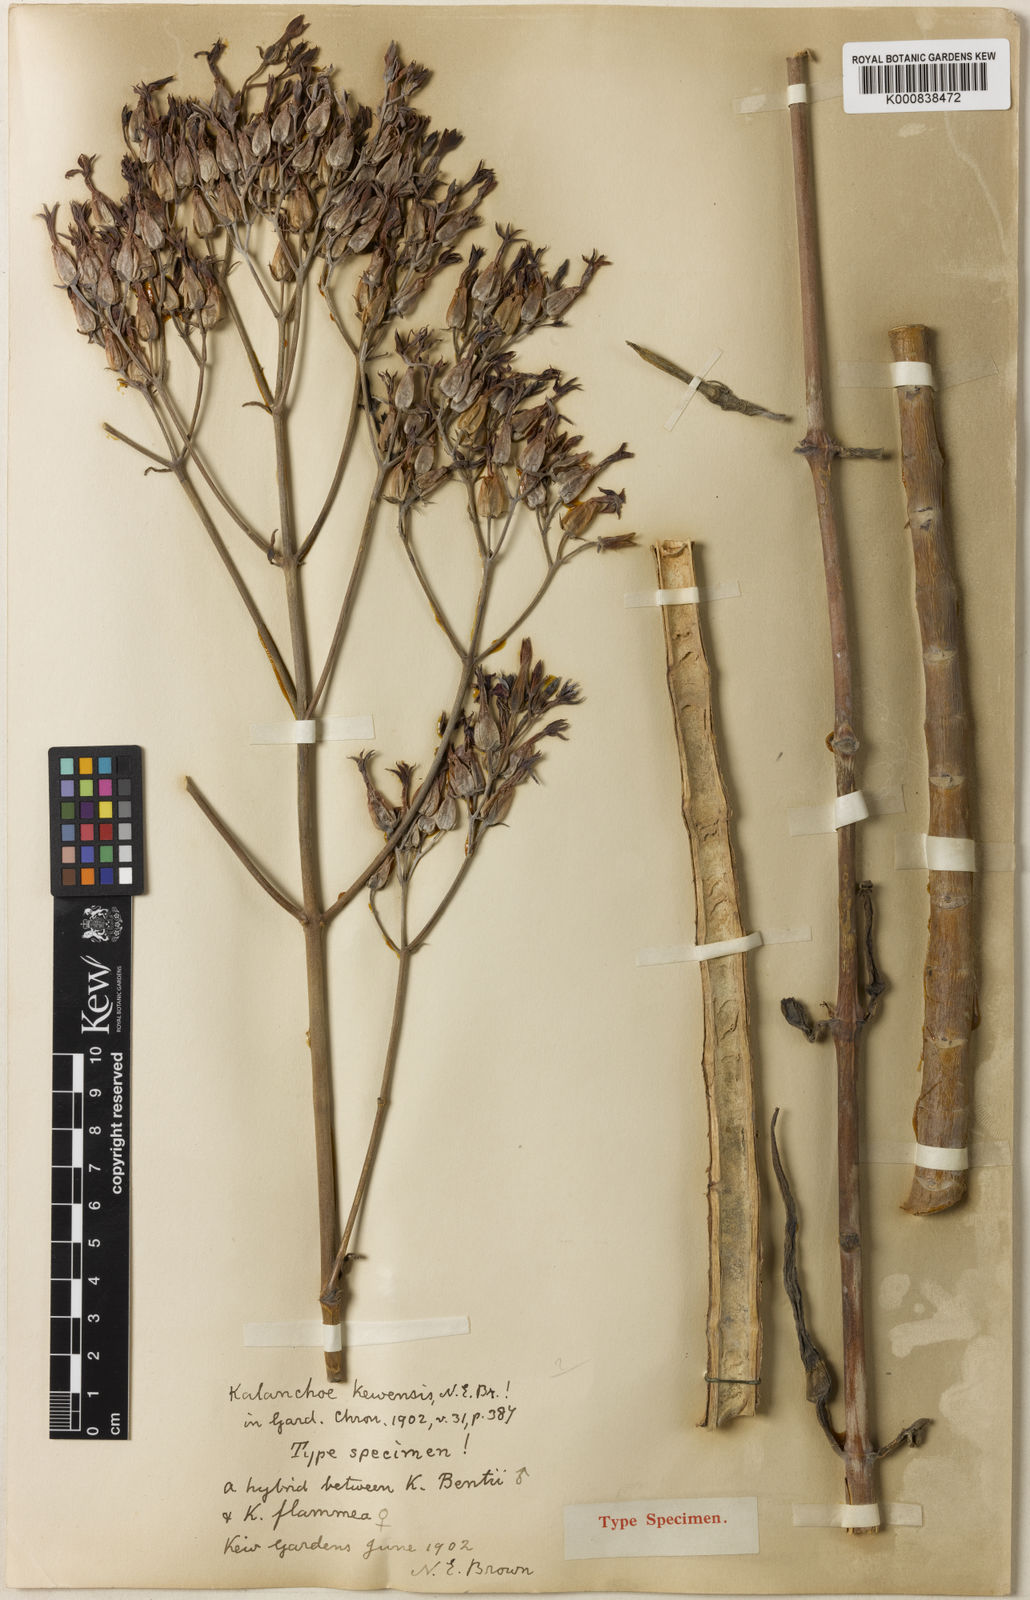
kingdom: Plantae
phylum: Tracheophyta
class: Magnoliopsida
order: Saxifragales
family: Crassulaceae
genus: Kalanchoe
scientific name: Kalanchoe
